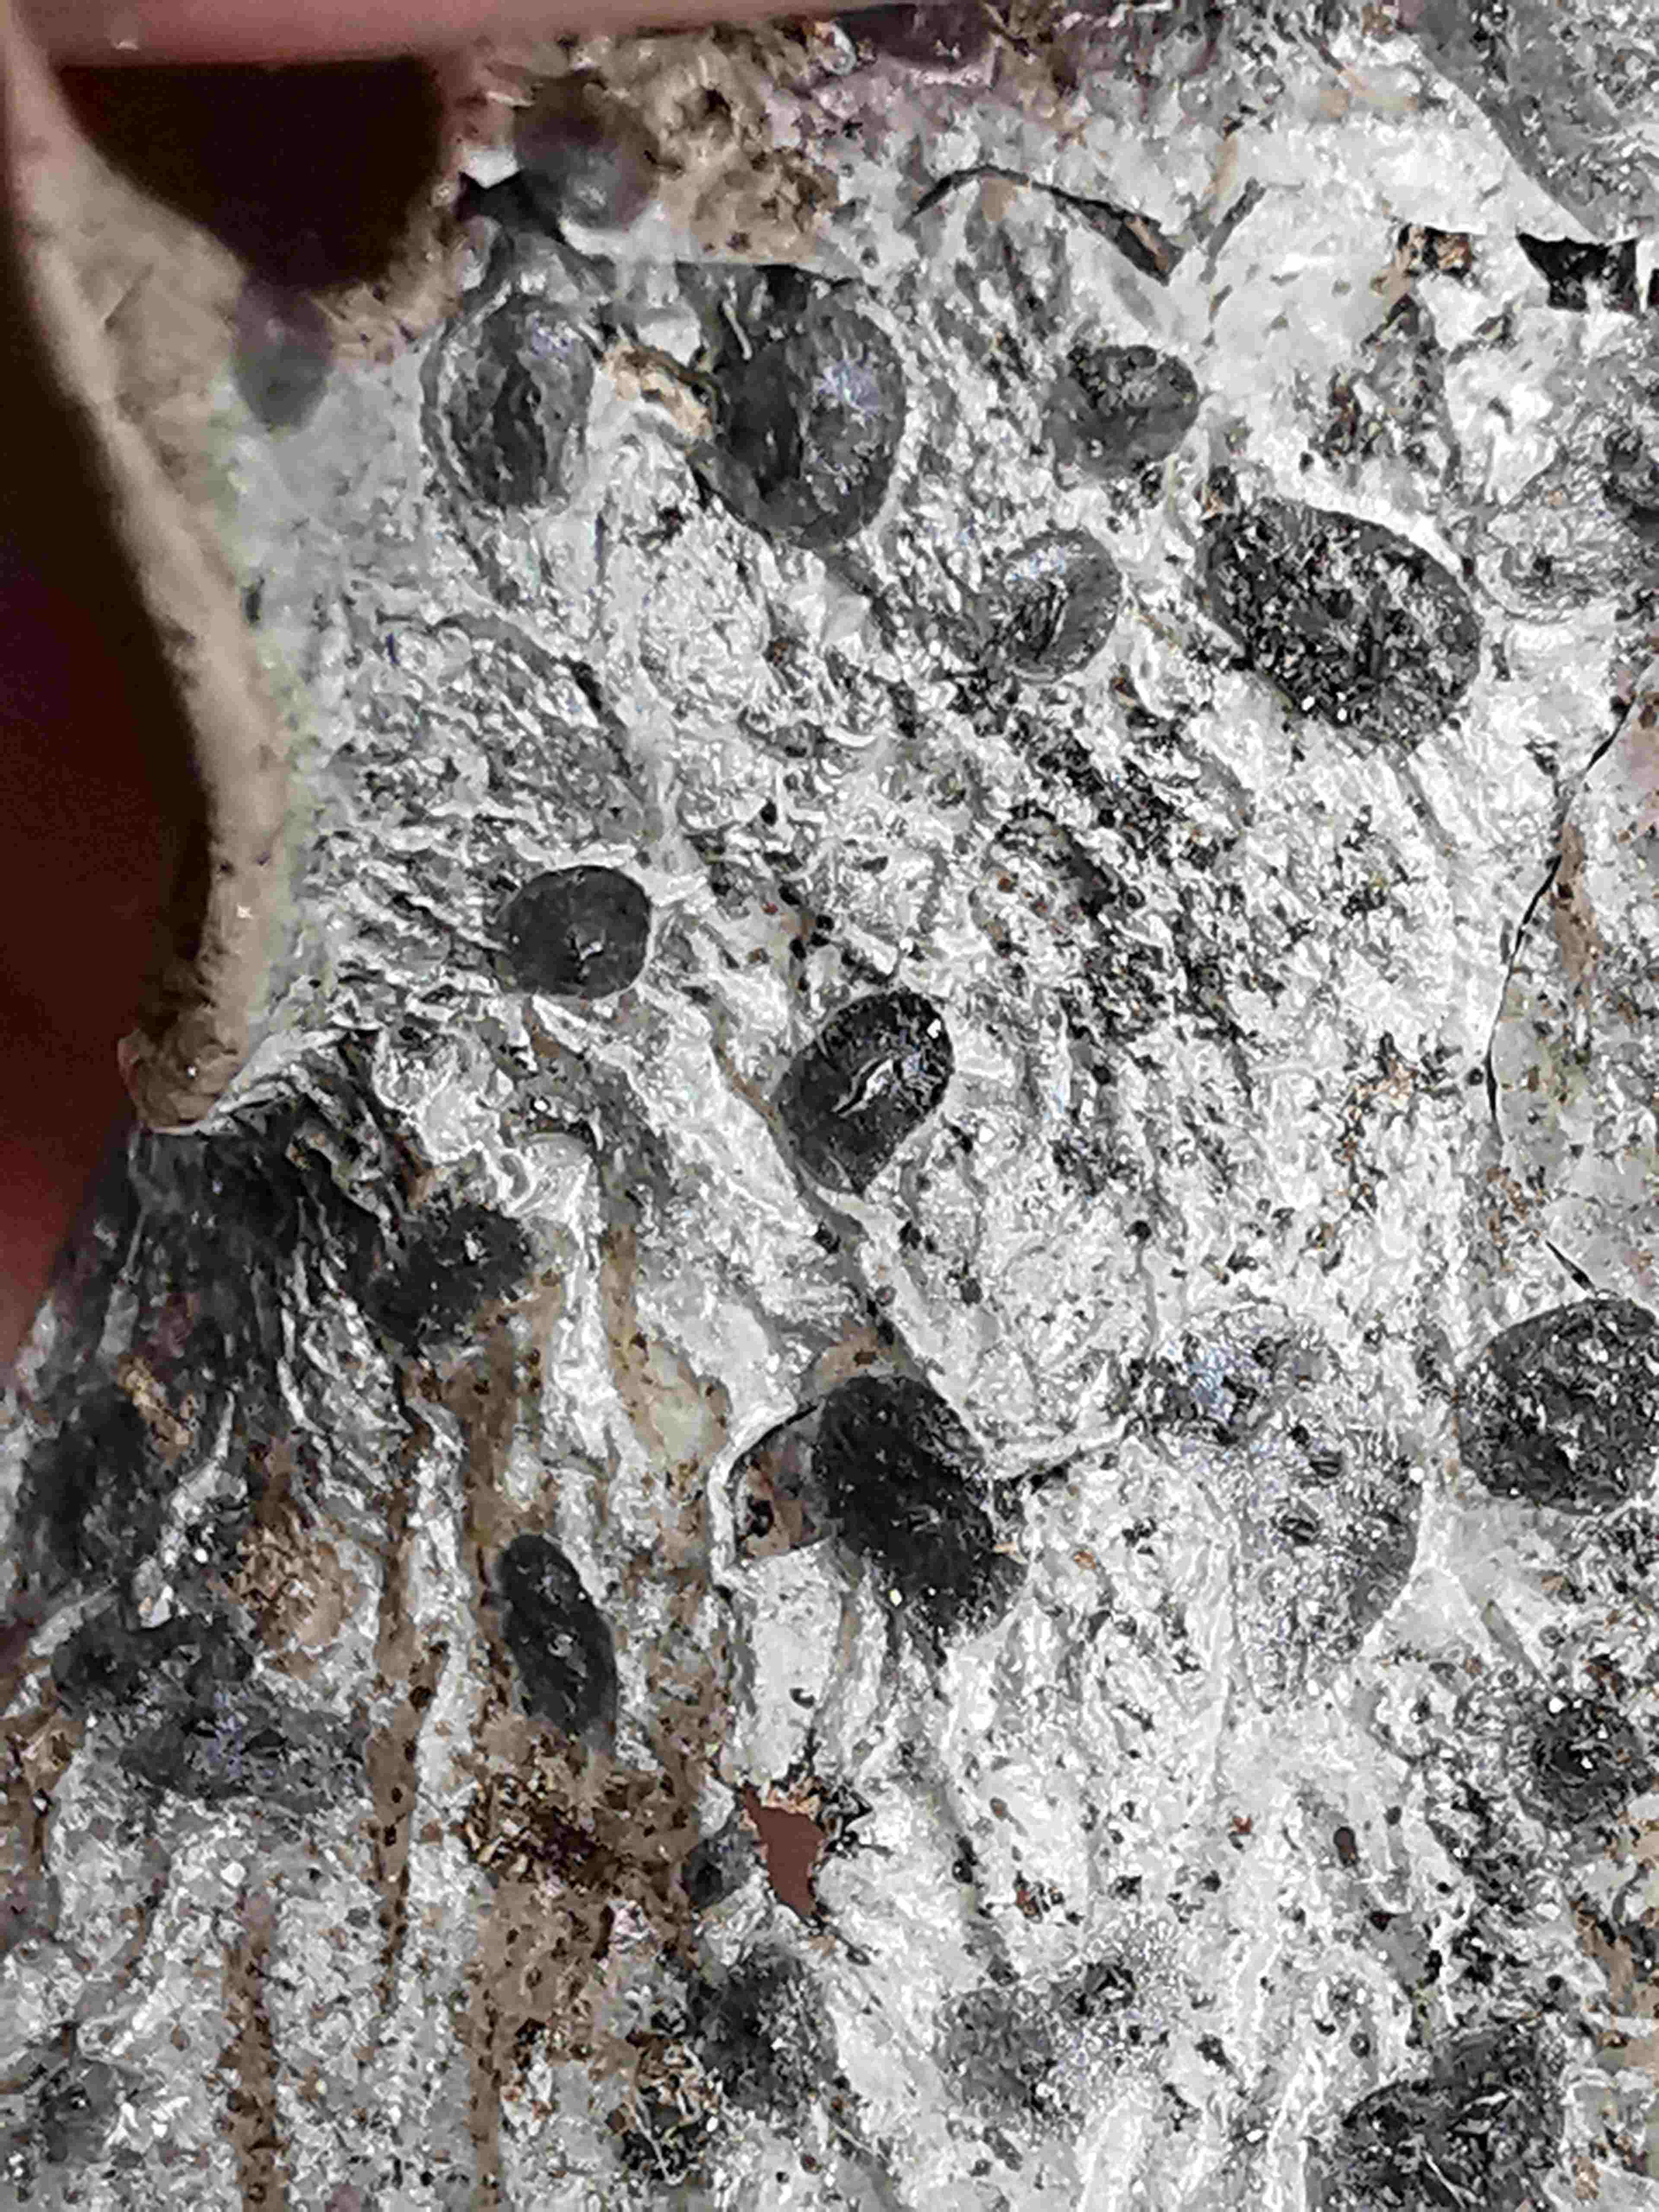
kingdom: Fungi
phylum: Ascomycota
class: Leotiomycetes
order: Phacidiales
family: Phacidiaceae
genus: Phacidium
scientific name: Phacidium lauri
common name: kristtorn-tandskive
